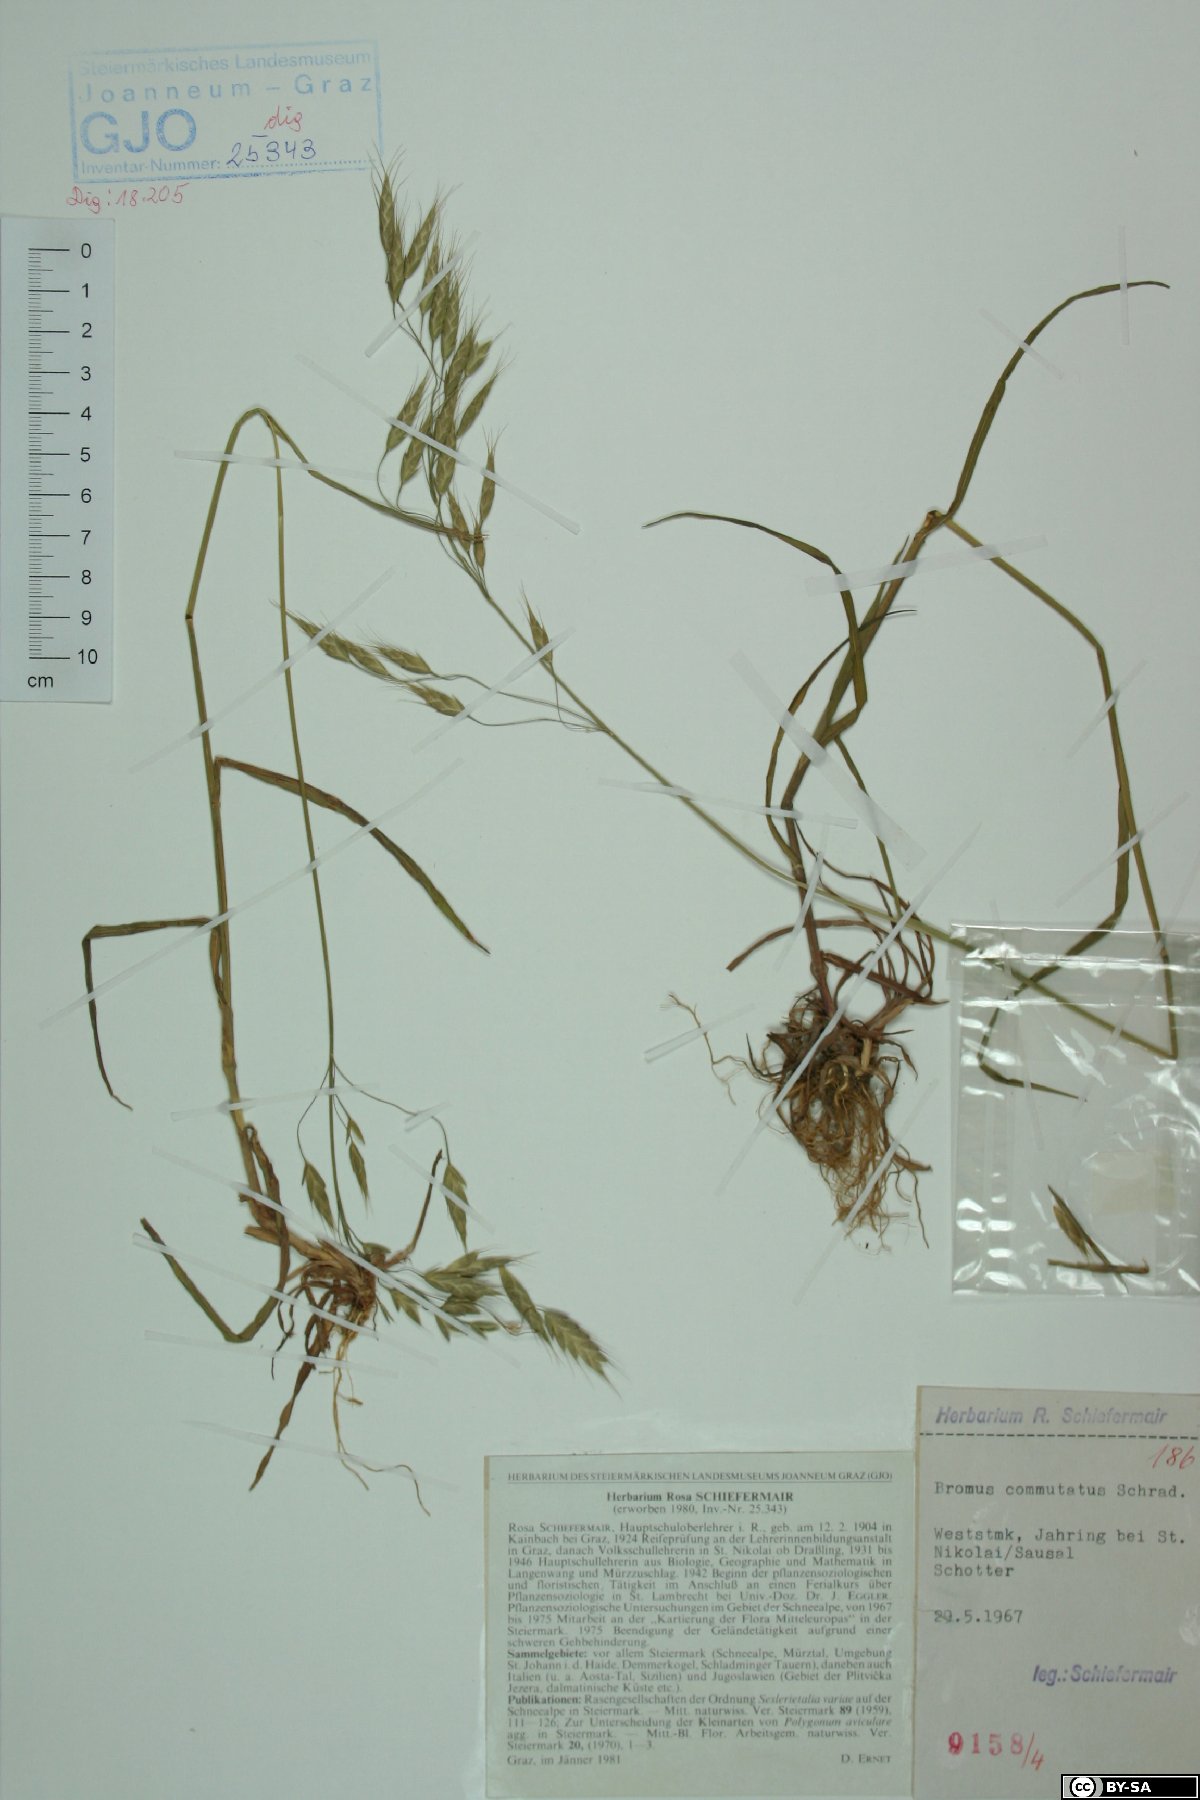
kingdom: Plantae
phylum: Tracheophyta
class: Liliopsida
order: Poales
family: Poaceae
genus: Bromus
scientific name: Bromus commutatus
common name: Meadow brome
